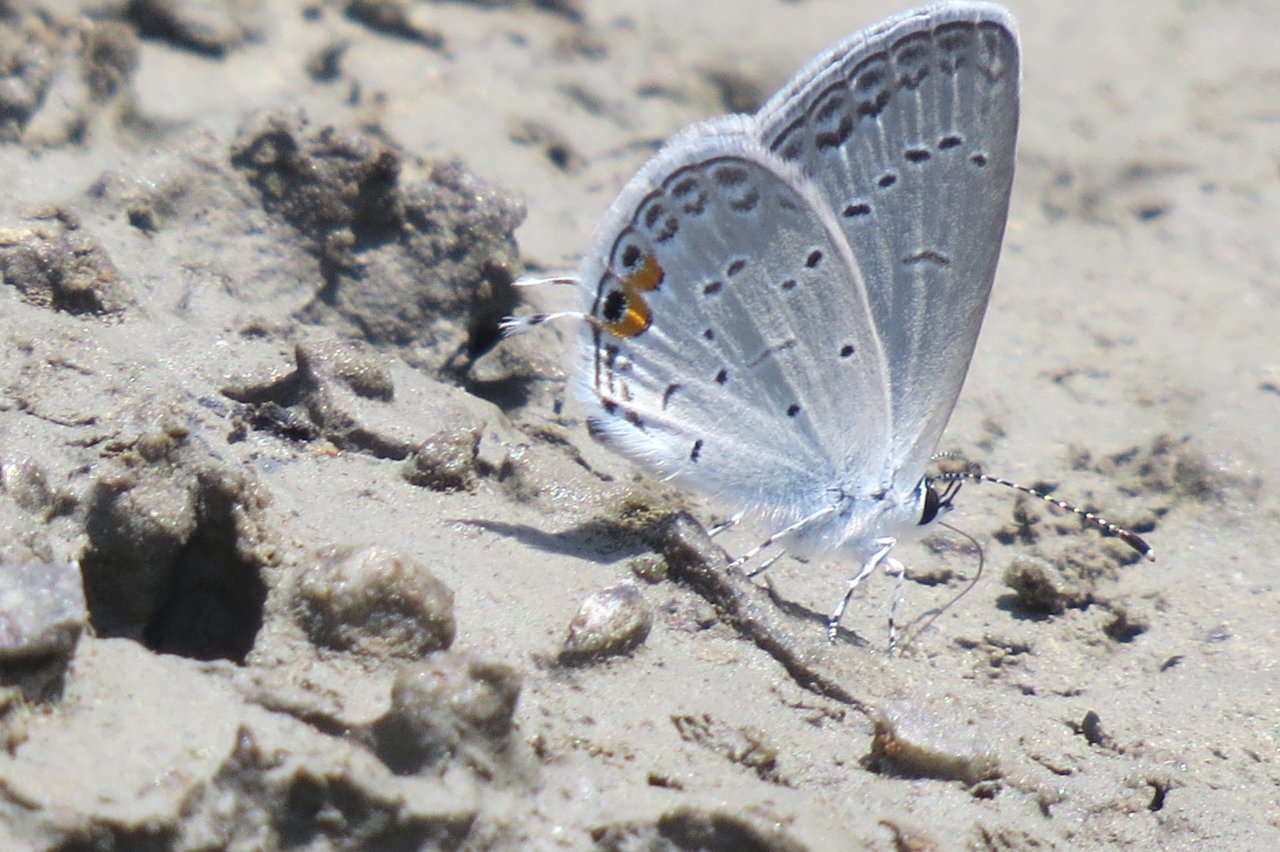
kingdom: Animalia
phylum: Arthropoda
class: Insecta
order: Lepidoptera
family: Lycaenidae
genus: Elkalyce
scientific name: Elkalyce comyntas
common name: Eastern Tailed-Blue
